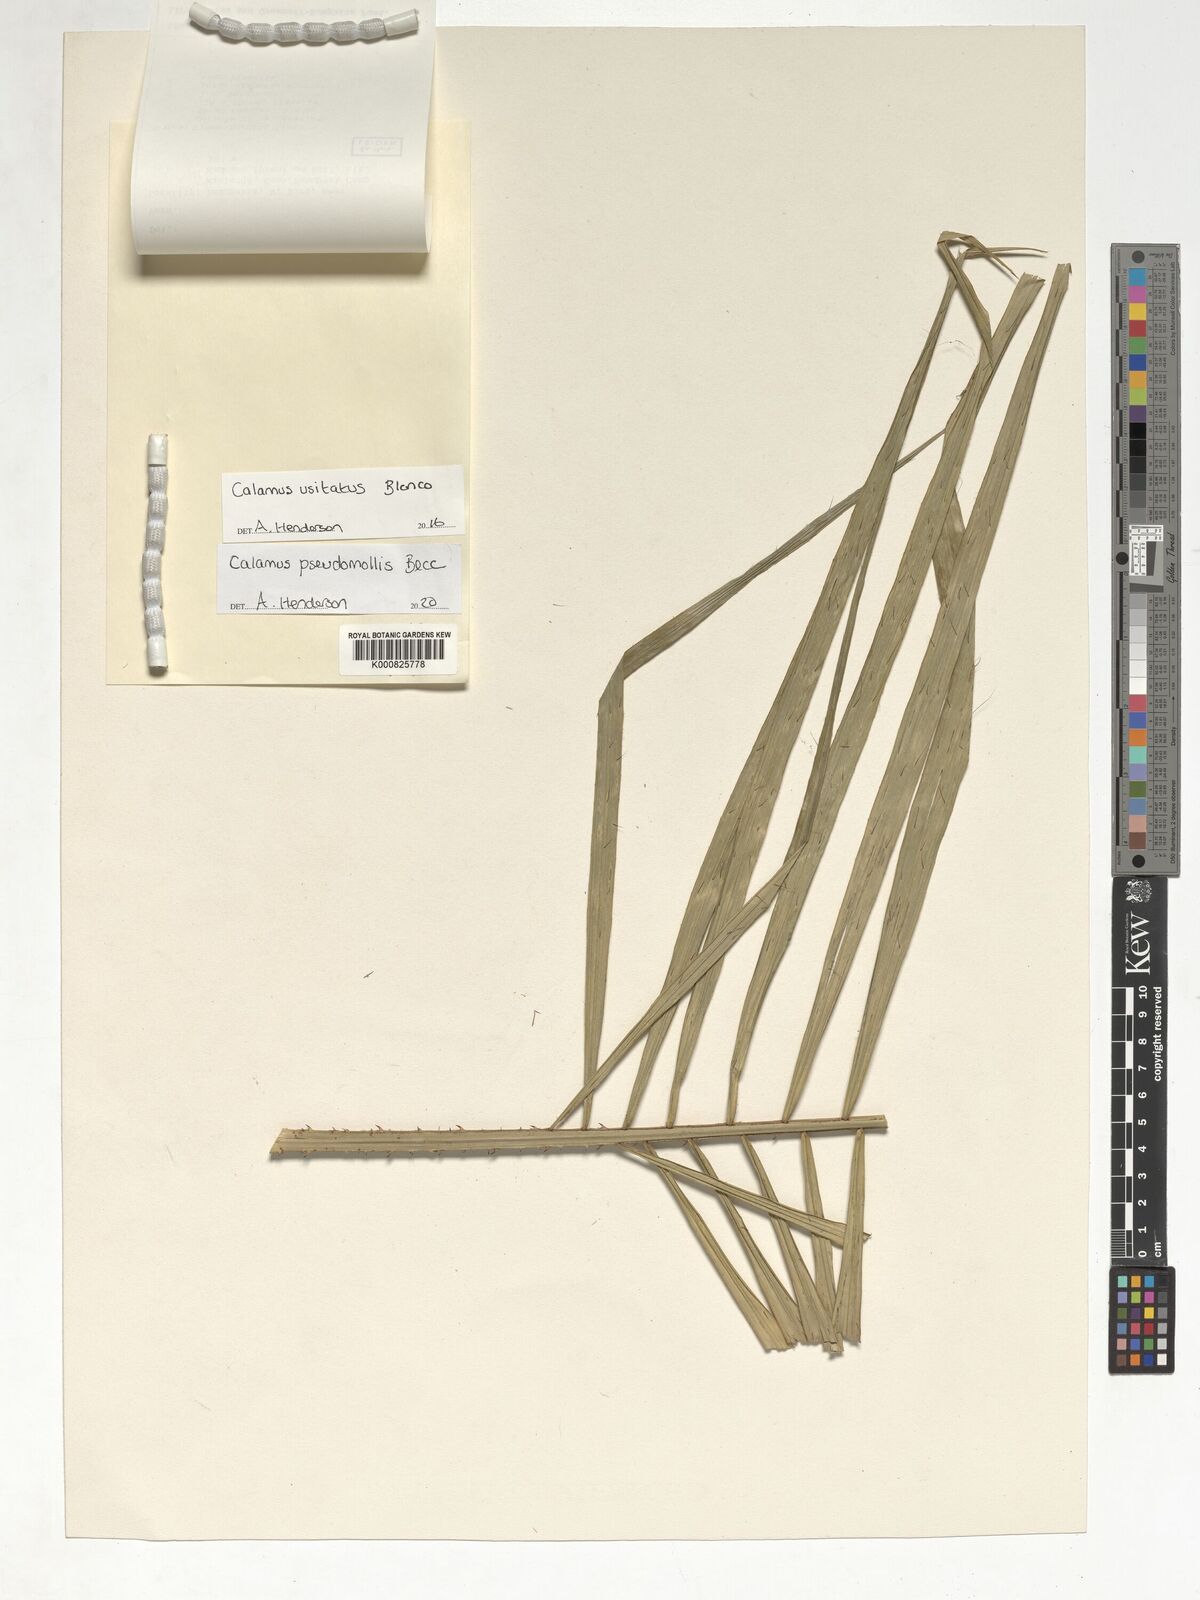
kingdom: Plantae
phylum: Tracheophyta
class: Liliopsida
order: Arecales
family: Arecaceae
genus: Calamus
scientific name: Calamus pseudomollis
